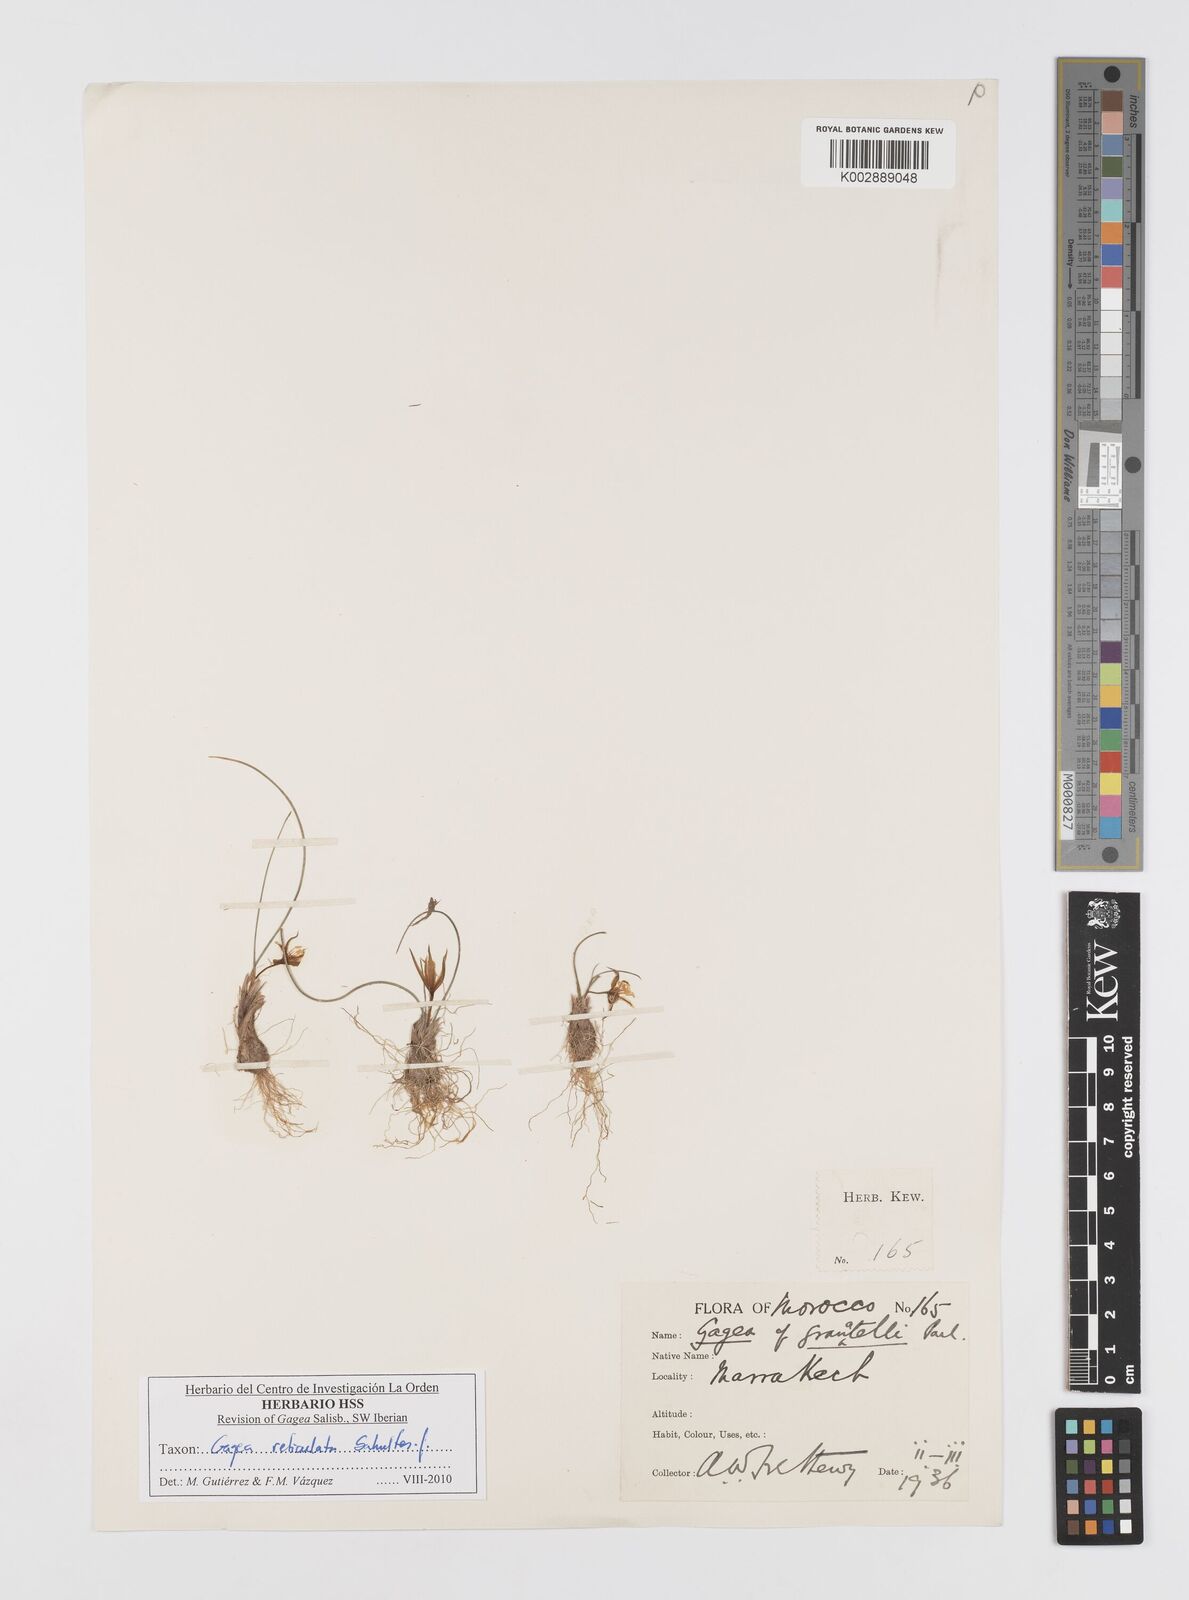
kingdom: Plantae
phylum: Tracheophyta
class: Liliopsida
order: Liliales
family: Liliaceae
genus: Gagea
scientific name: Gagea reticulata
